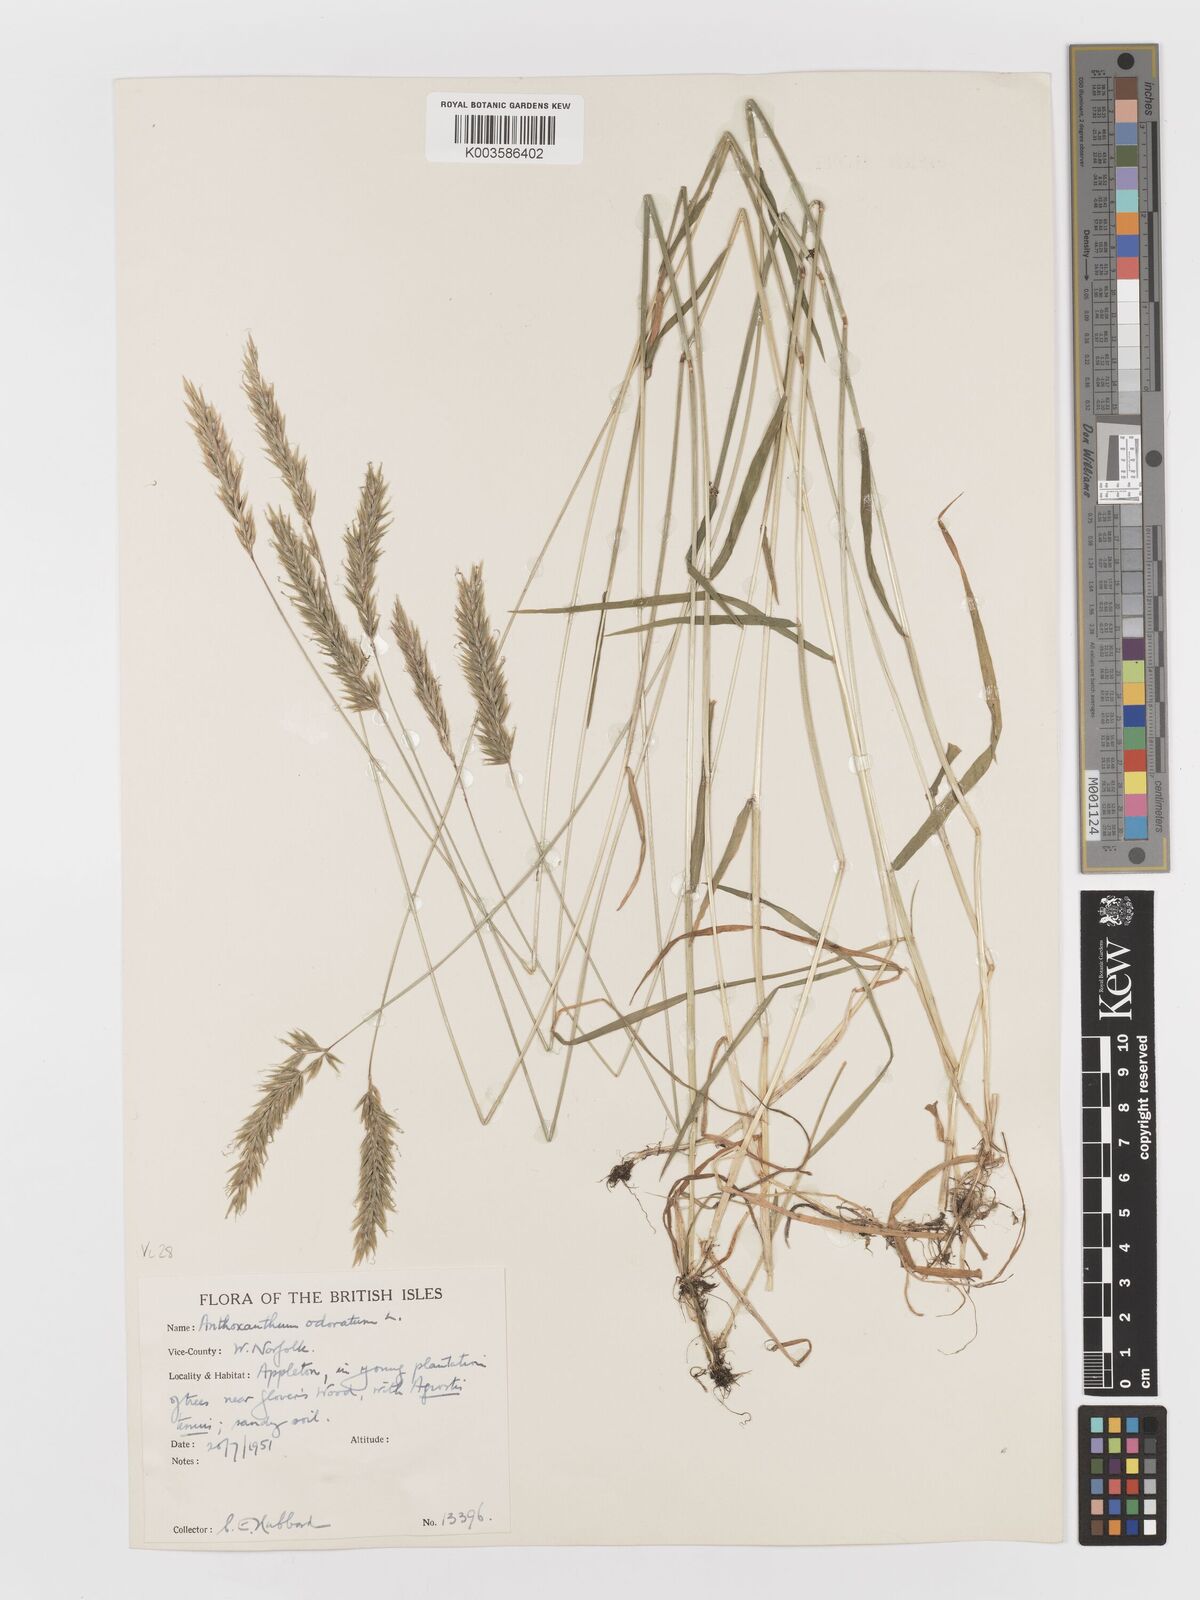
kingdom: Plantae
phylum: Tracheophyta
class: Liliopsida
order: Poales
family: Poaceae
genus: Anthoxanthum
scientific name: Anthoxanthum odoratum
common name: Sweet vernalgrass
